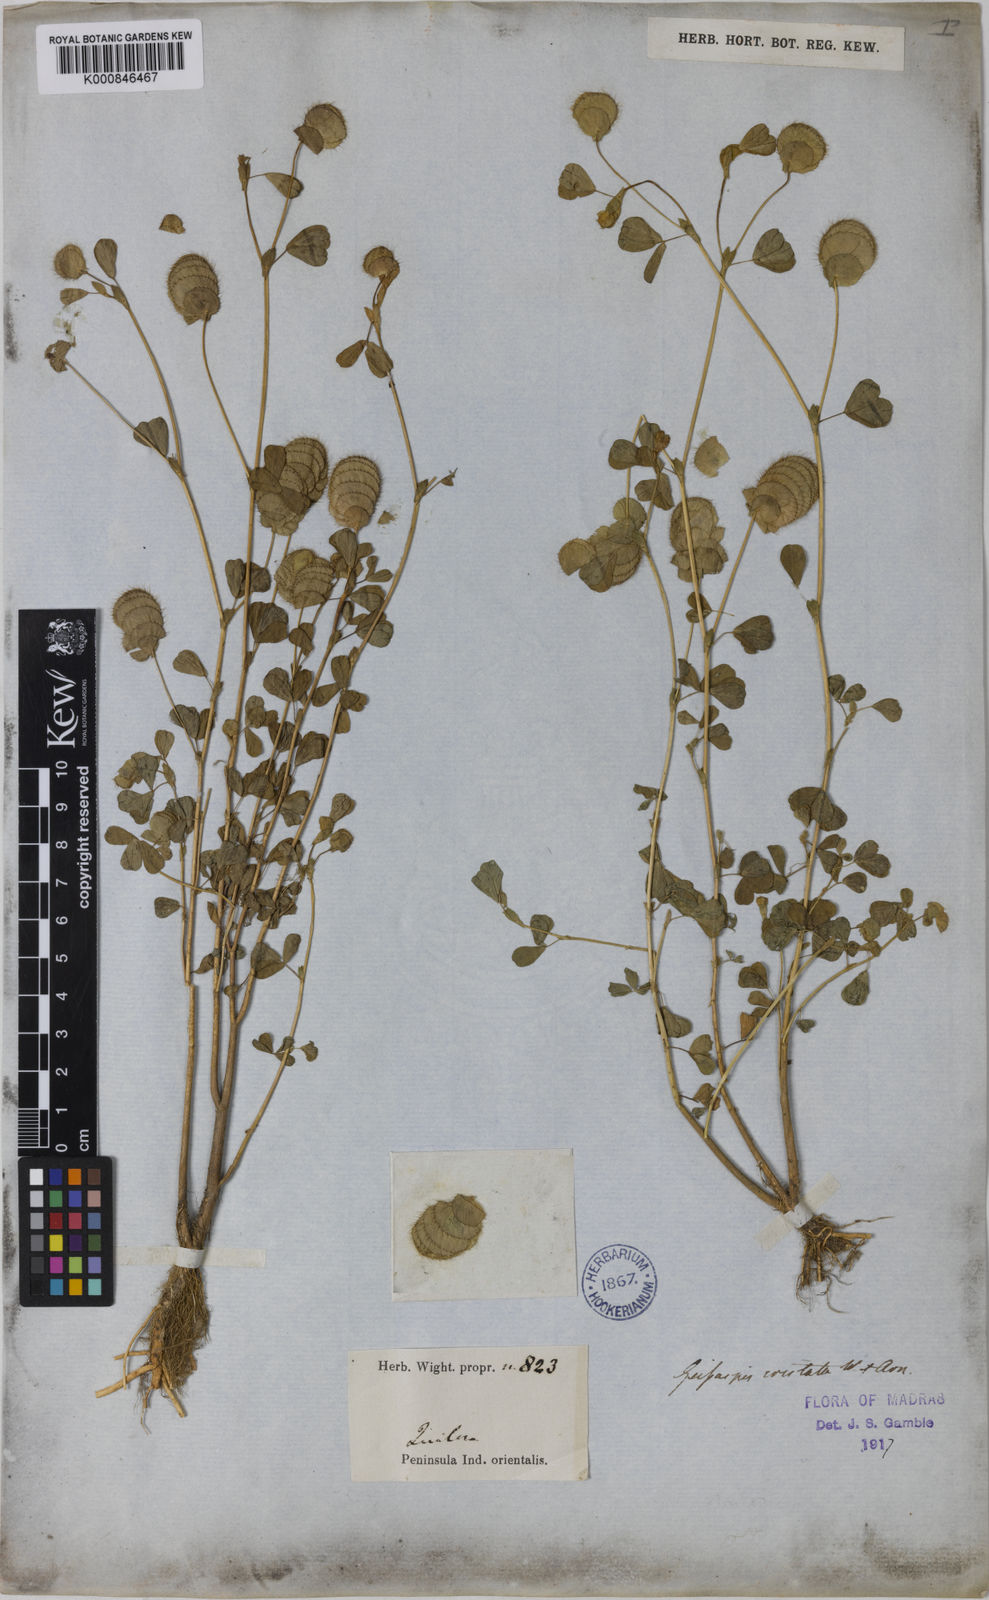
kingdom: Plantae
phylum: Tracheophyta
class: Magnoliopsida
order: Fabales
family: Fabaceae
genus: Geissaspis
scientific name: Geissaspis cristata
